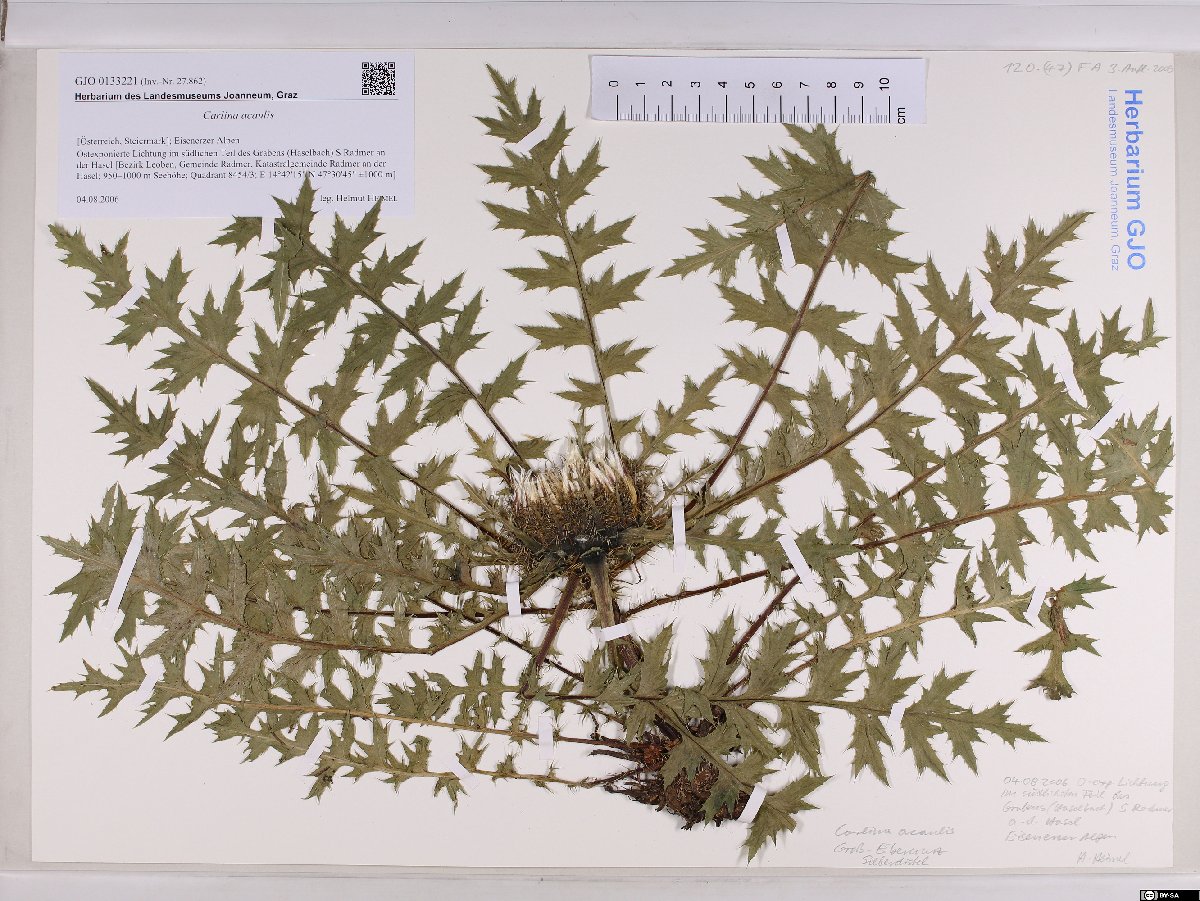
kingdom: Plantae
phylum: Tracheophyta
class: Magnoliopsida
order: Asterales
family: Asteraceae
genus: Carlina
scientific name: Carlina acaulis
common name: Stemless carline thistle
